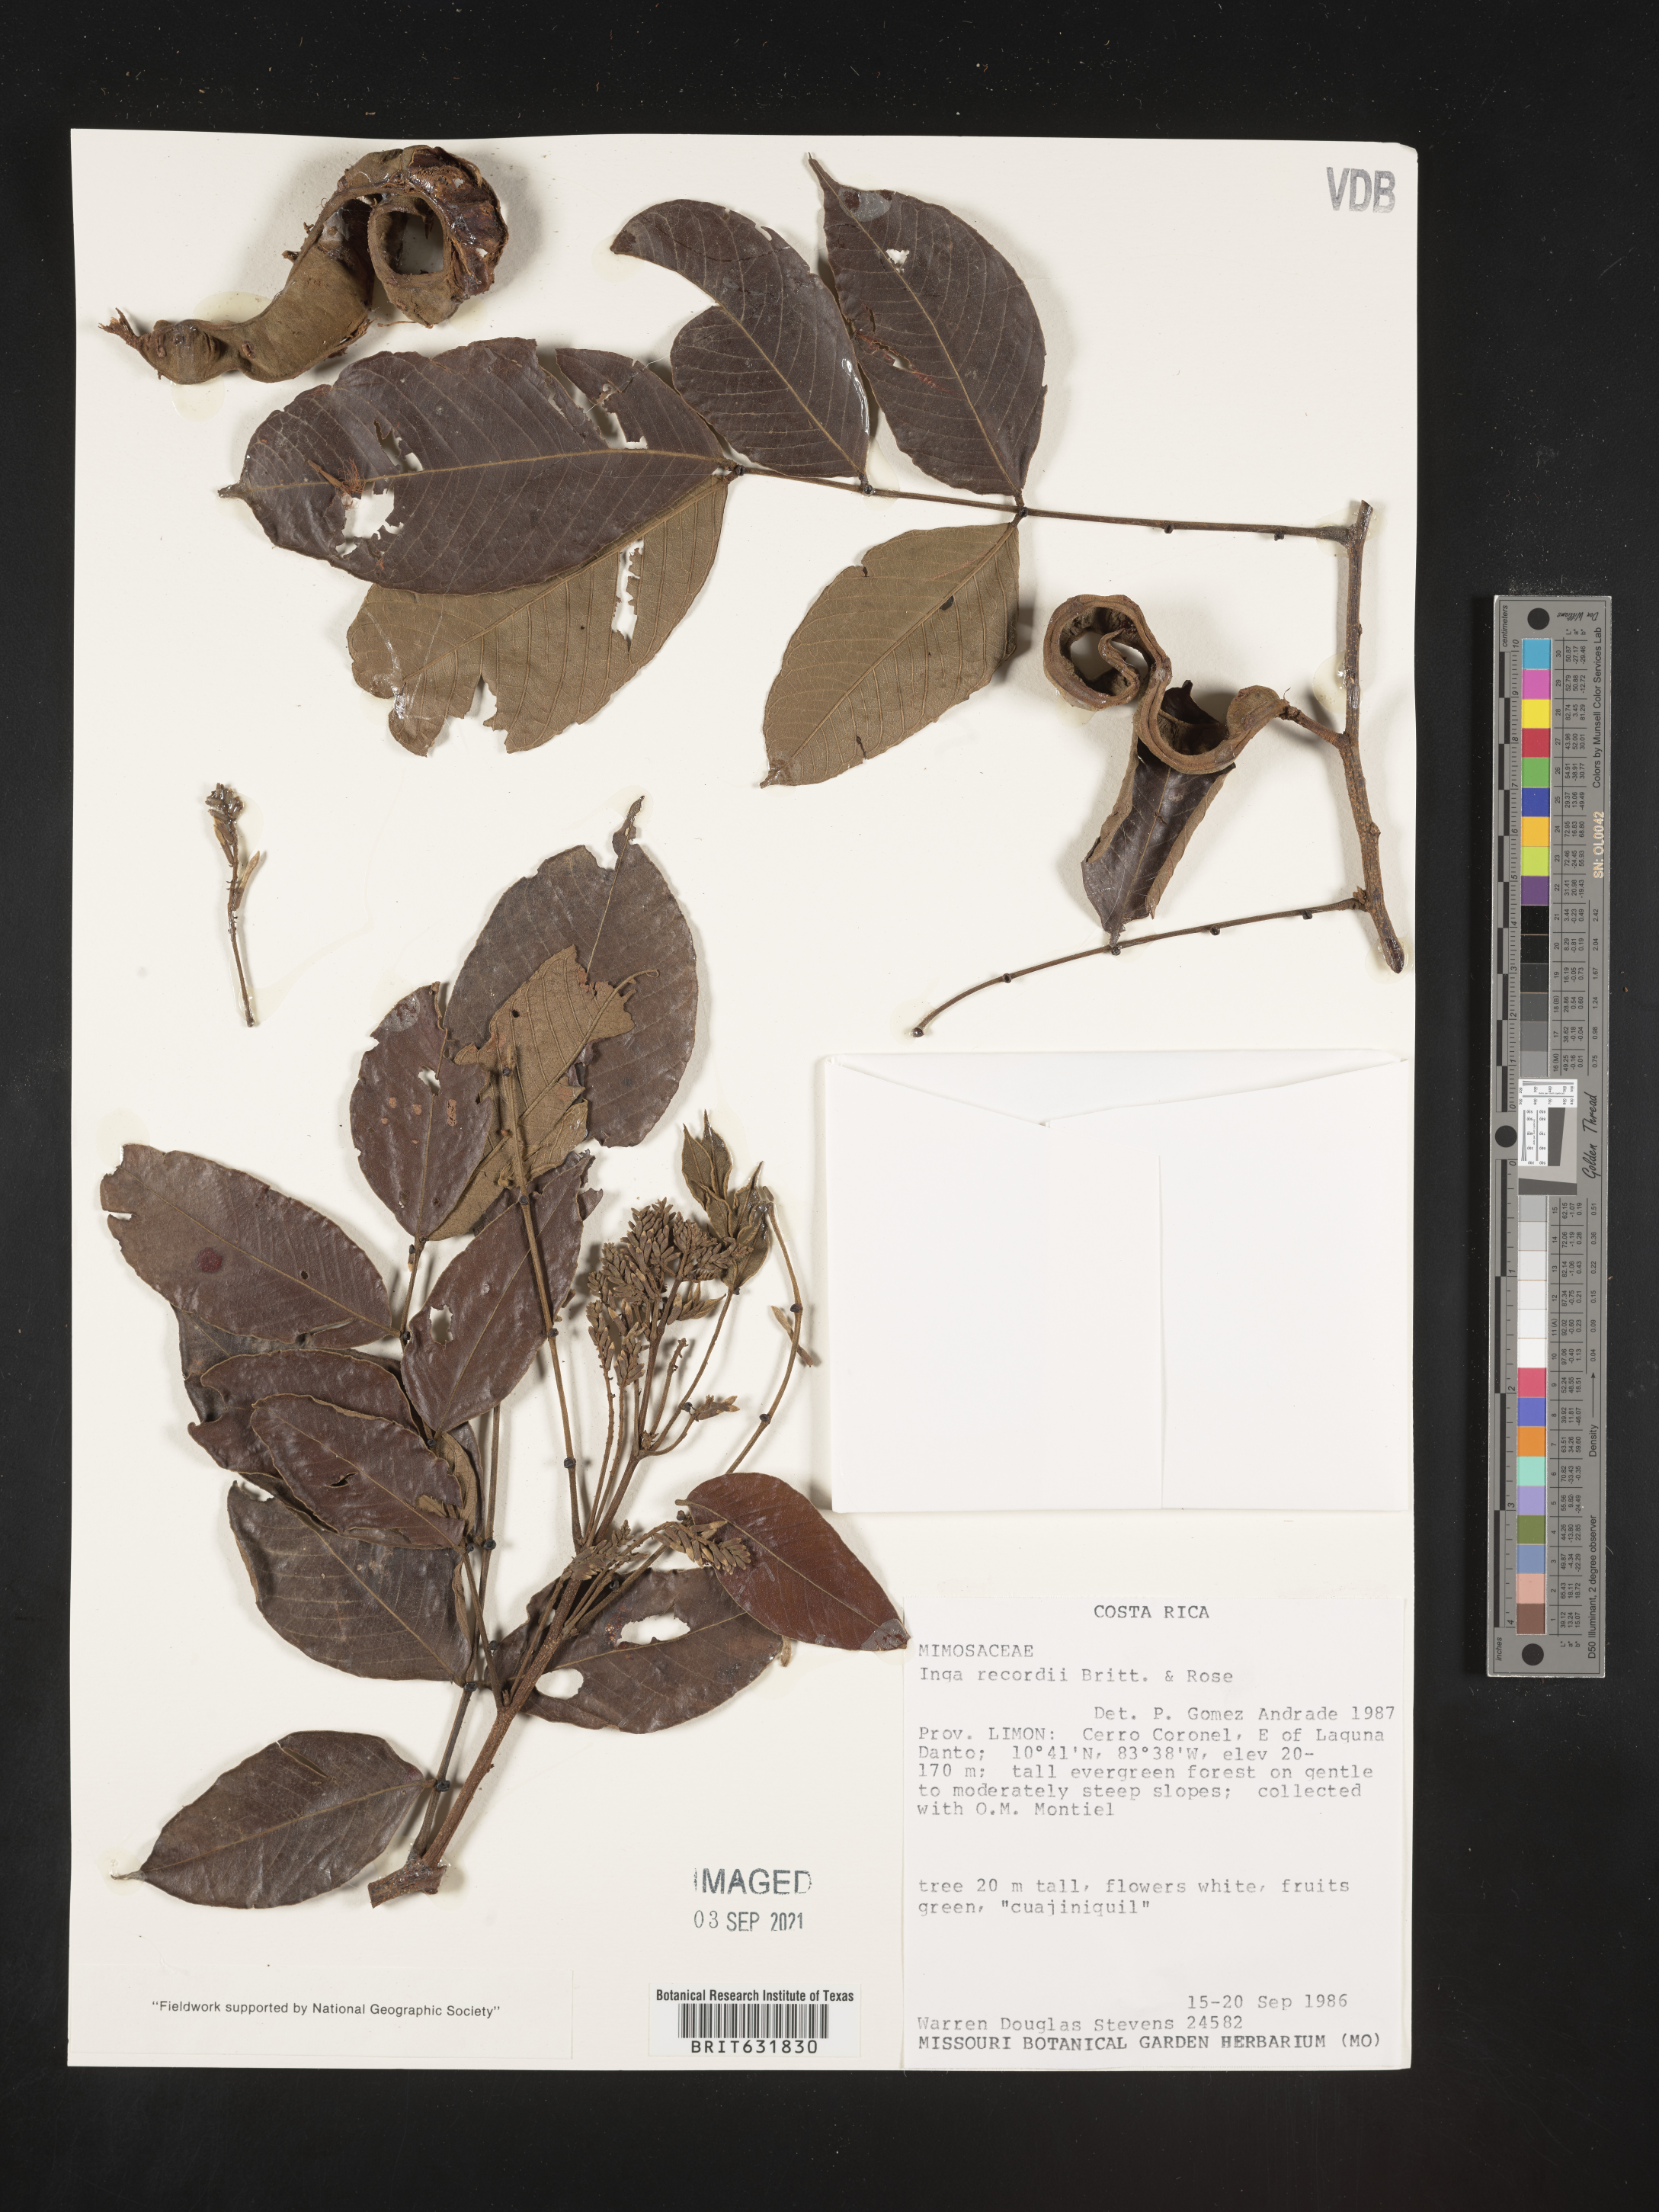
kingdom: Plantae
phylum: Tracheophyta
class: Magnoliopsida
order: Fabales
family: Fabaceae
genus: Inga
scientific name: Inga
